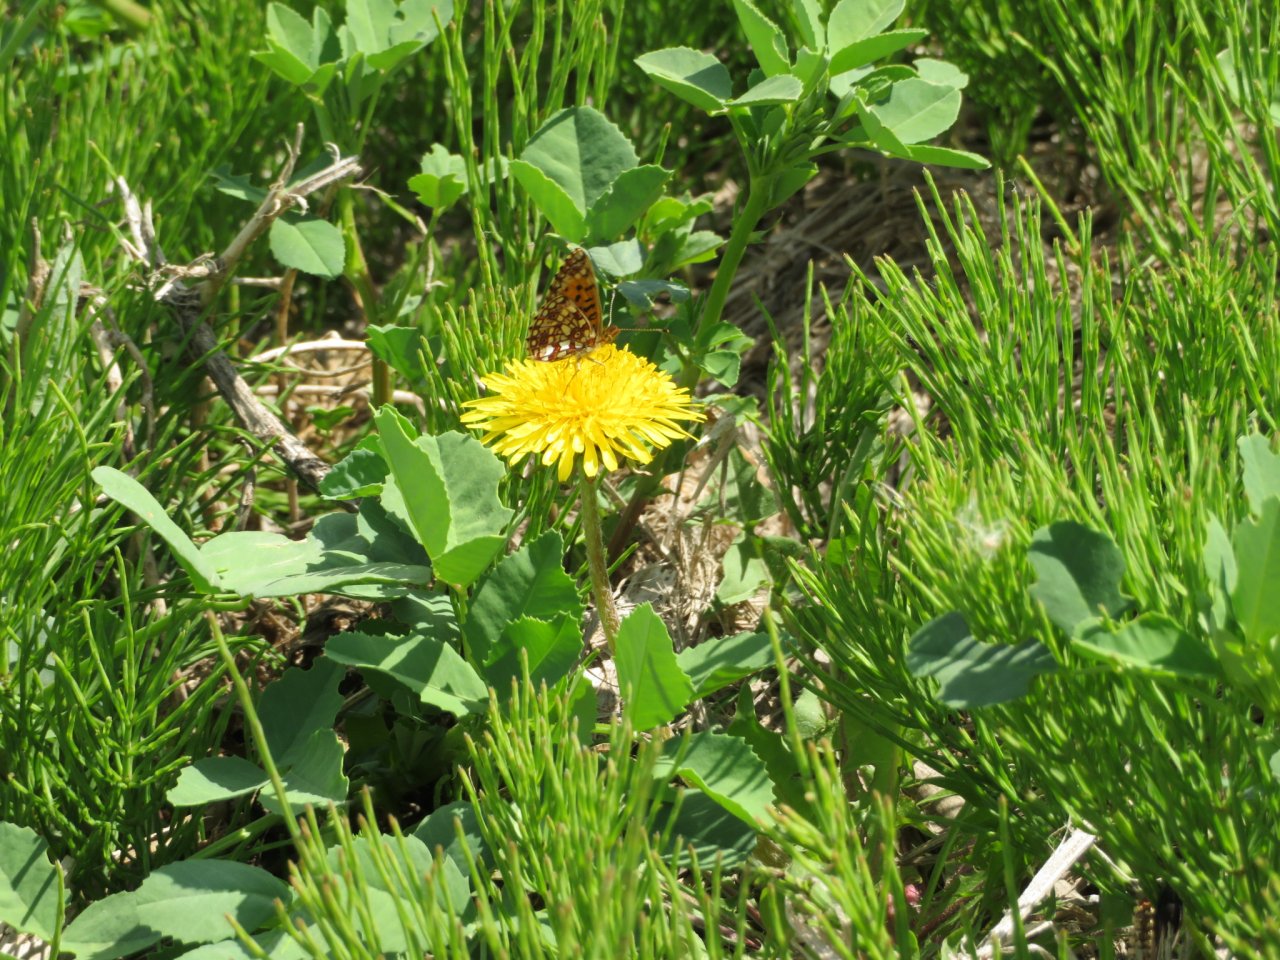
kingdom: Animalia
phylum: Arthropoda
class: Insecta
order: Lepidoptera
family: Nymphalidae
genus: Boloria
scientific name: Boloria selene
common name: Silver-bordered Fritillary
